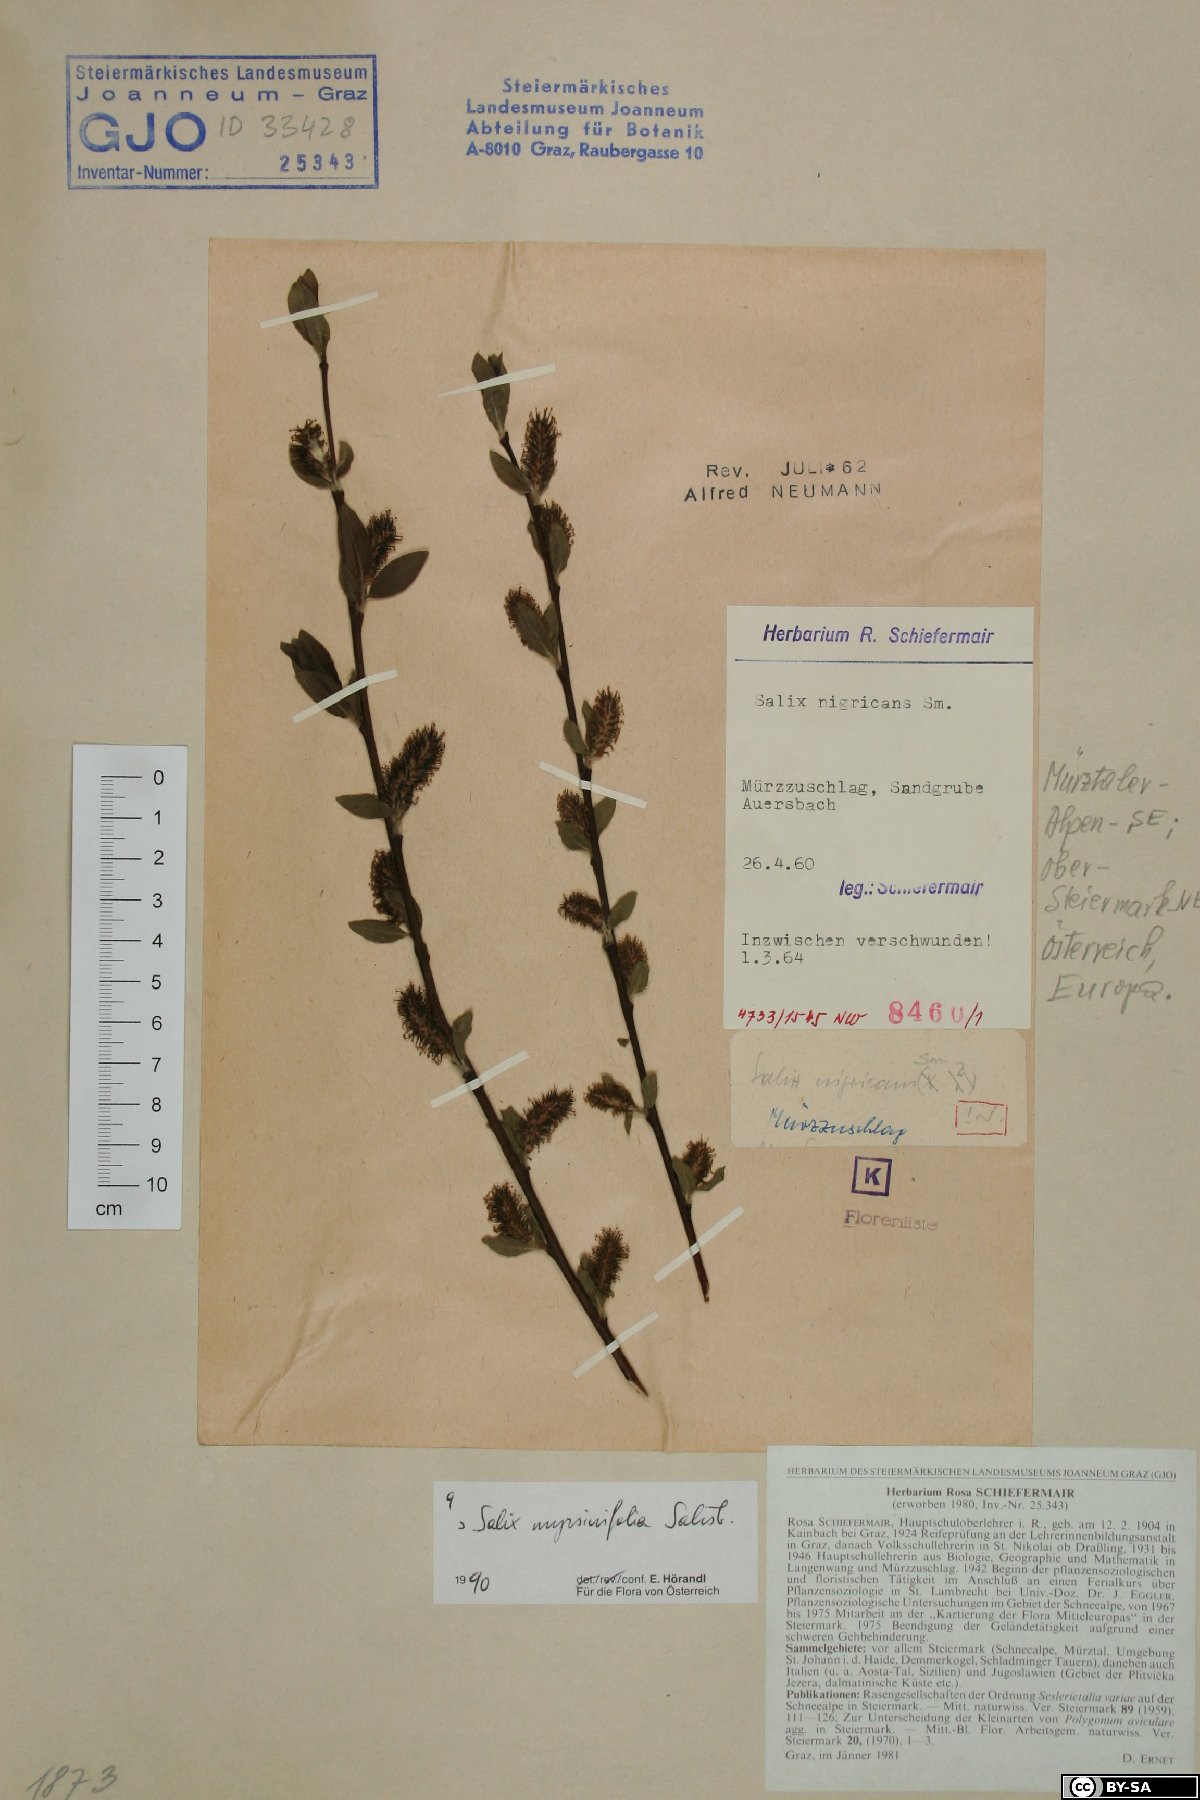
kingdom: Plantae
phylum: Tracheophyta
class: Magnoliopsida
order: Malpighiales
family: Salicaceae
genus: Salix
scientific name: Salix myrsinifolia
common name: Dark-leaved willow
